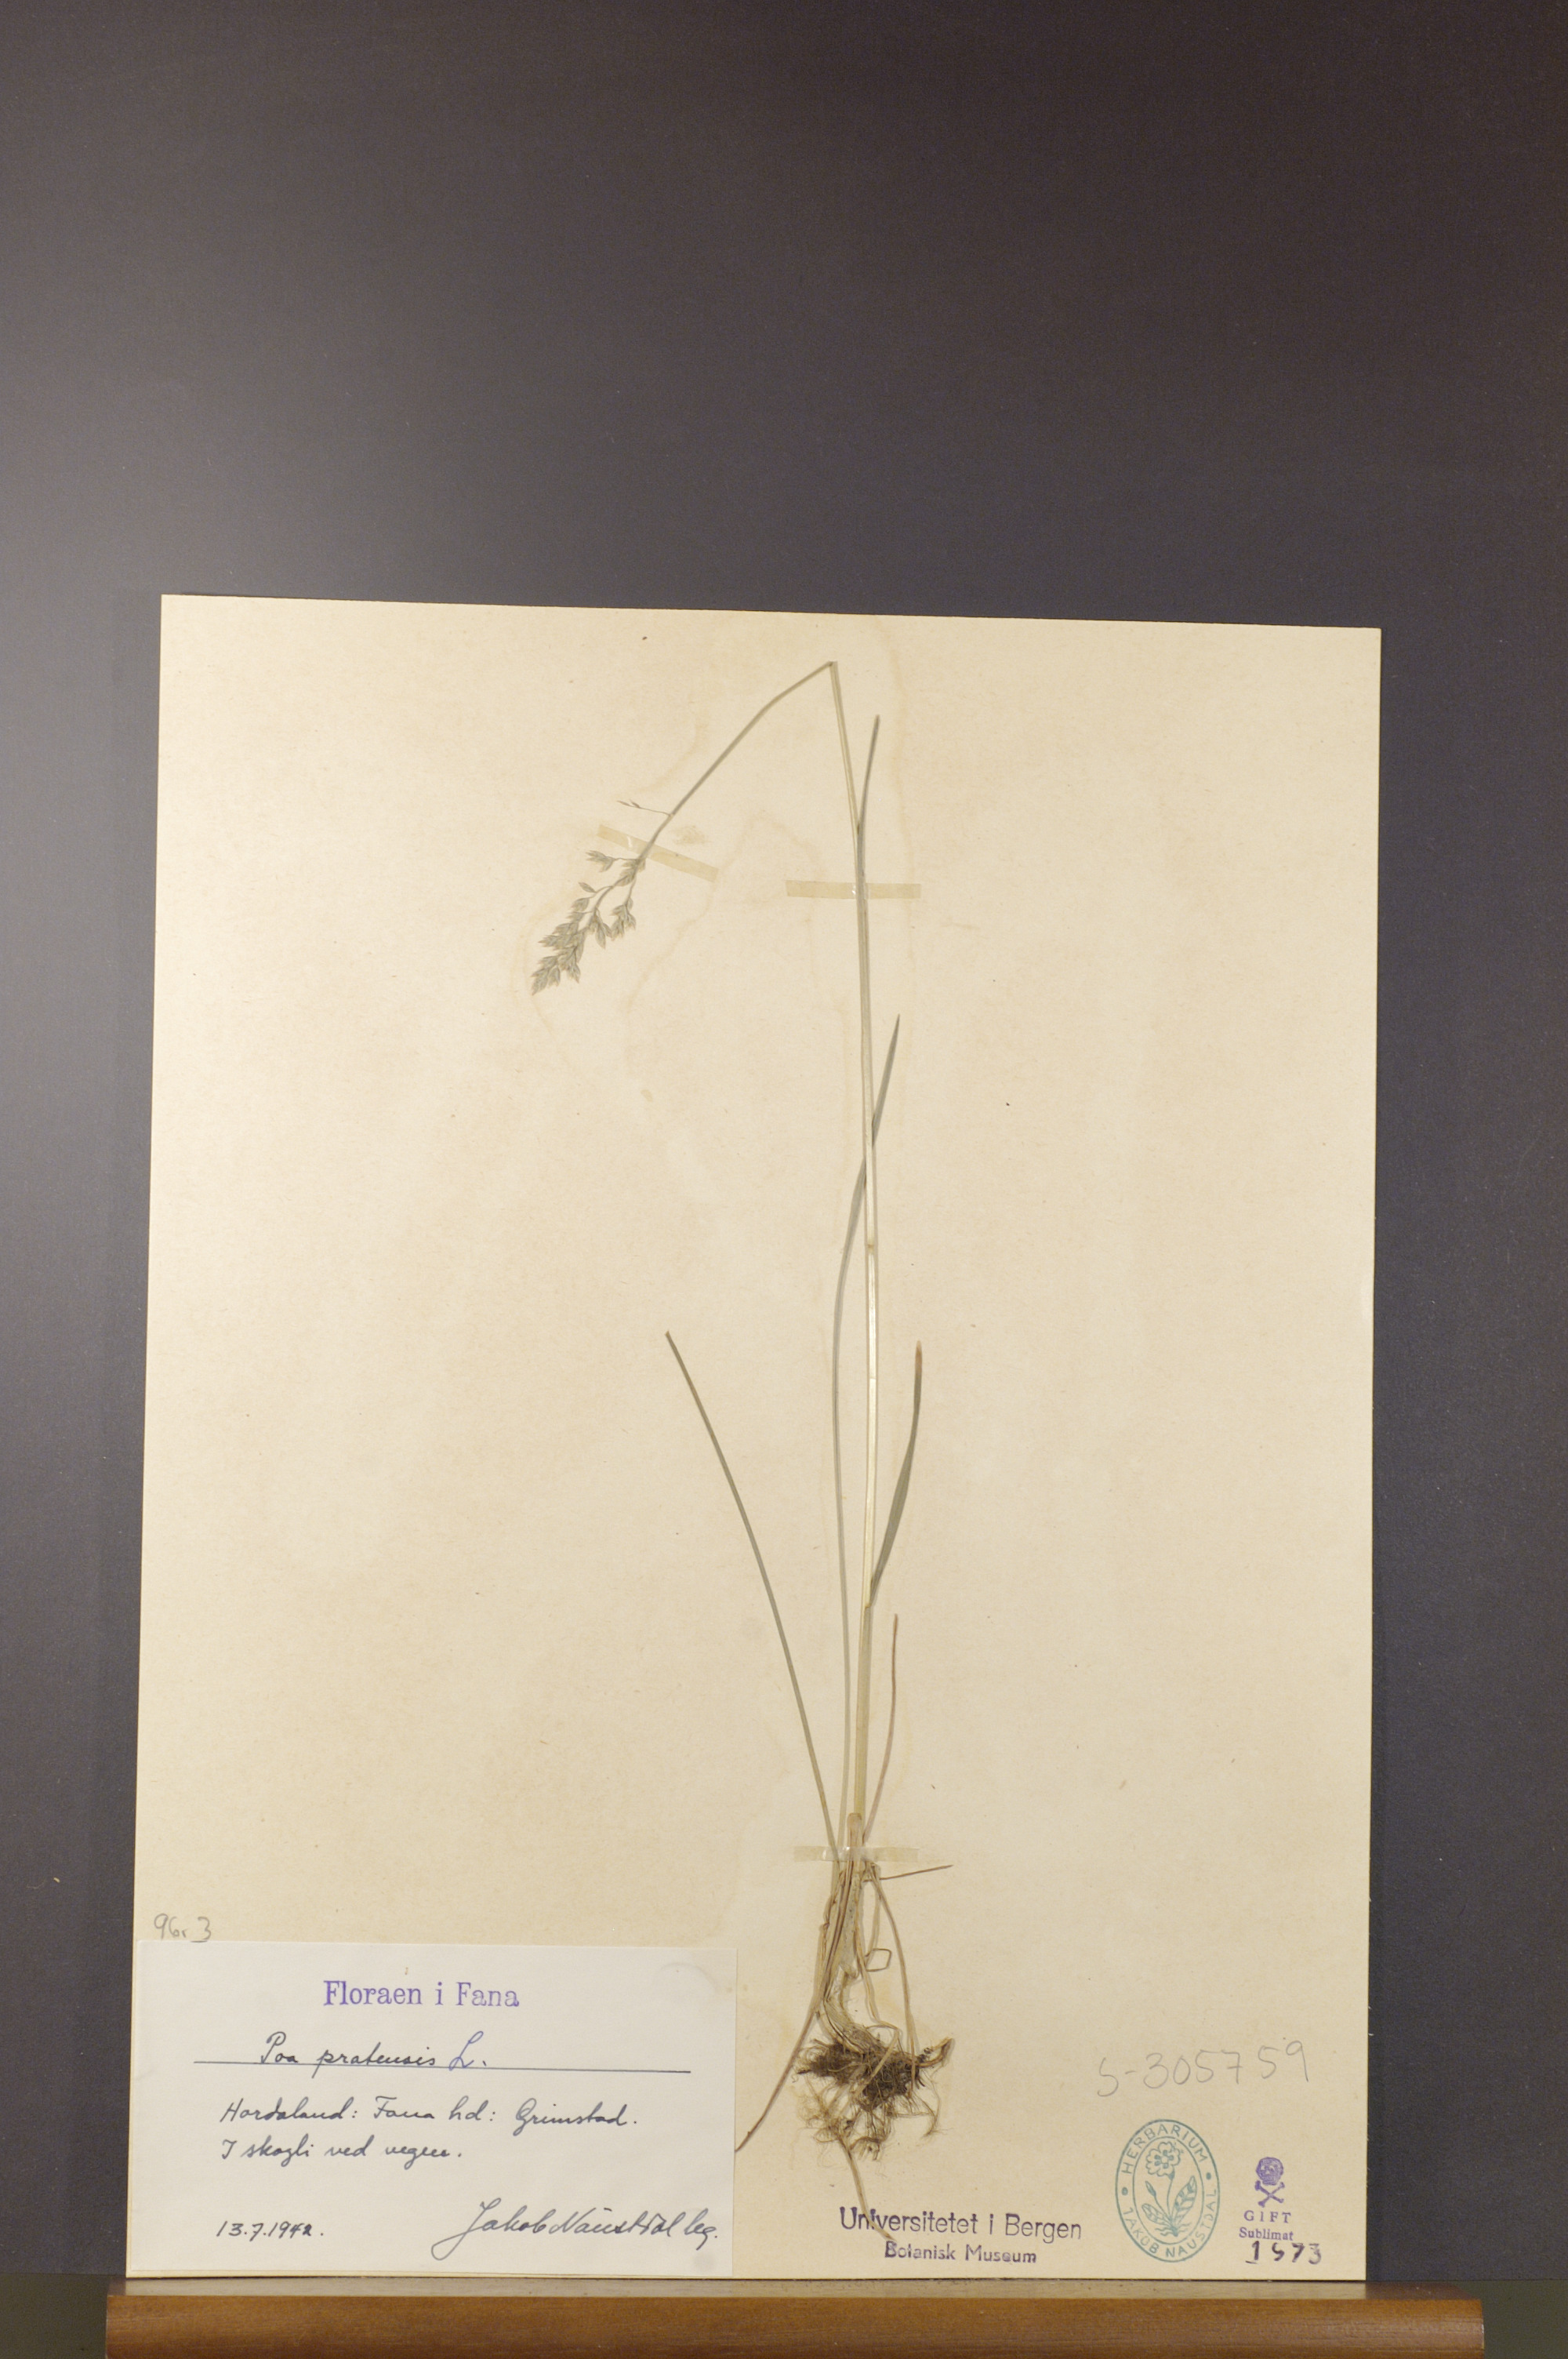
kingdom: Plantae
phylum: Tracheophyta
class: Liliopsida
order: Poales
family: Poaceae
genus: Poa
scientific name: Poa pratensis
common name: Kentucky bluegrass
